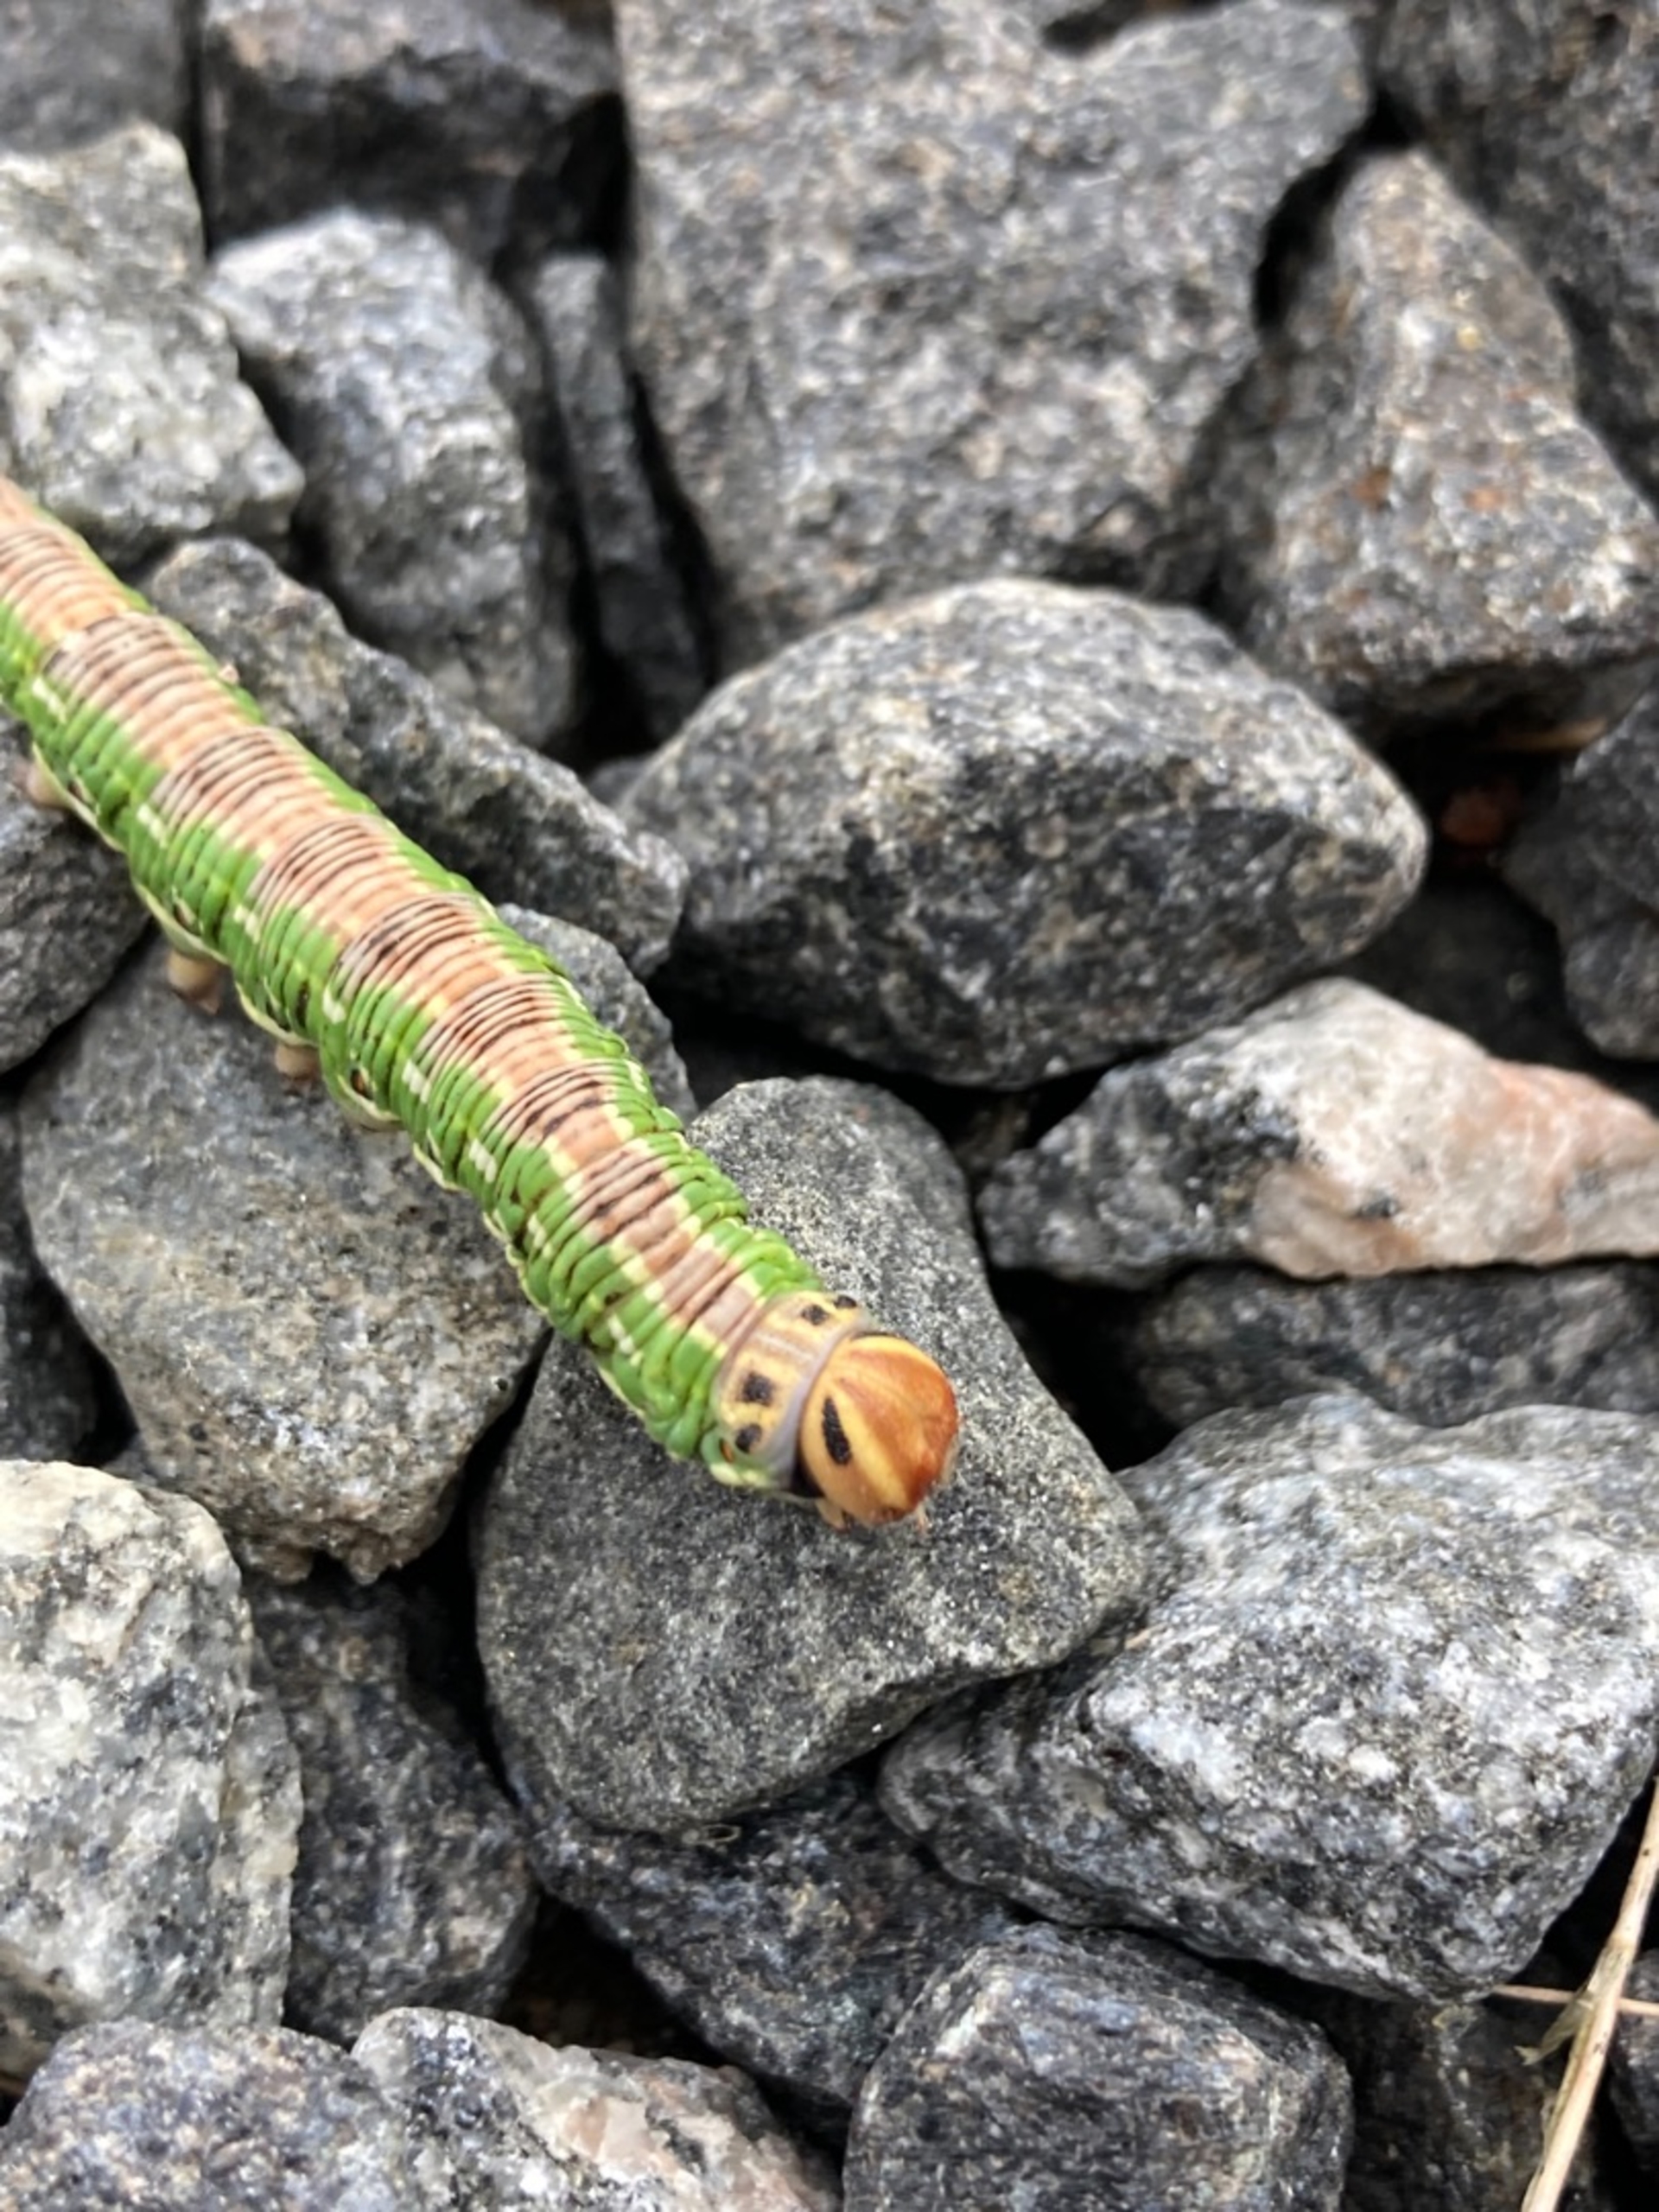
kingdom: Animalia
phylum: Arthropoda
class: Insecta
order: Lepidoptera
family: Sphingidae
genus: Sphinx
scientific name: Sphinx pinastri
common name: Fyrresværmer
